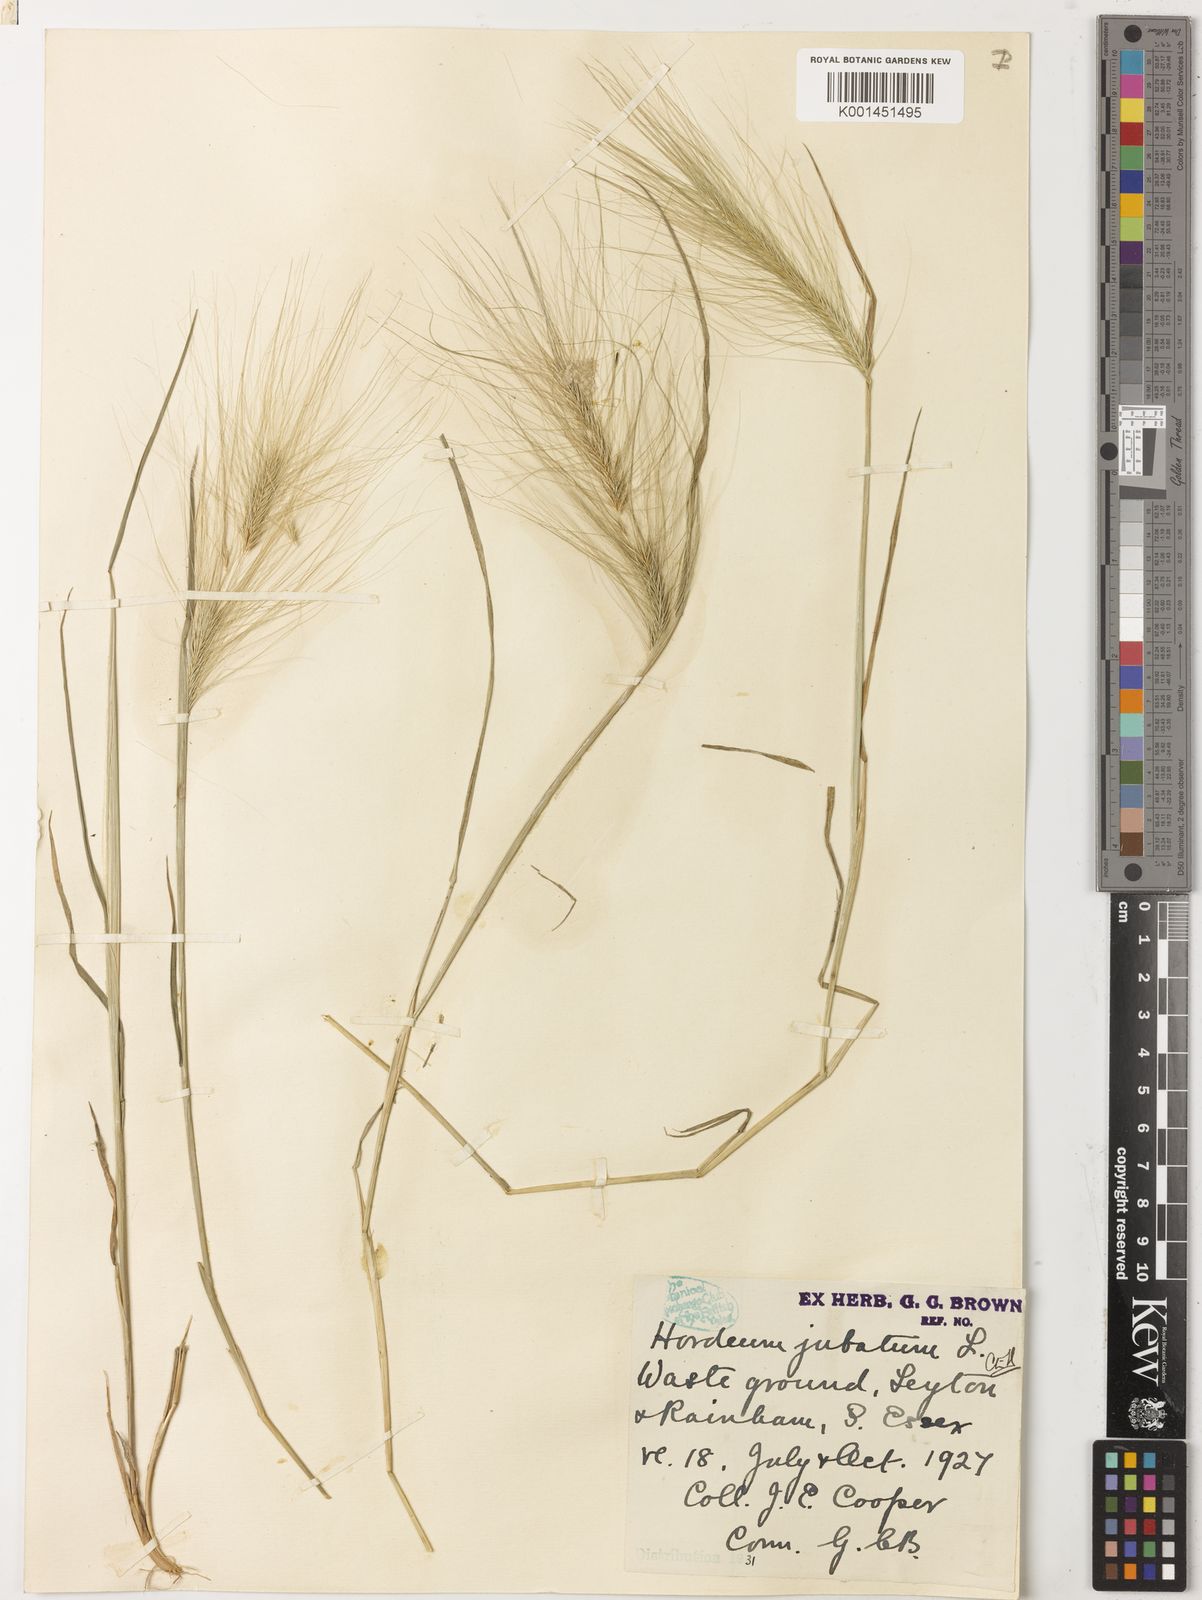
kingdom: Plantae
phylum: Tracheophyta
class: Liliopsida
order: Poales
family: Poaceae
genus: Hordeum
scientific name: Hordeum jubatum
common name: Foxtail barley
